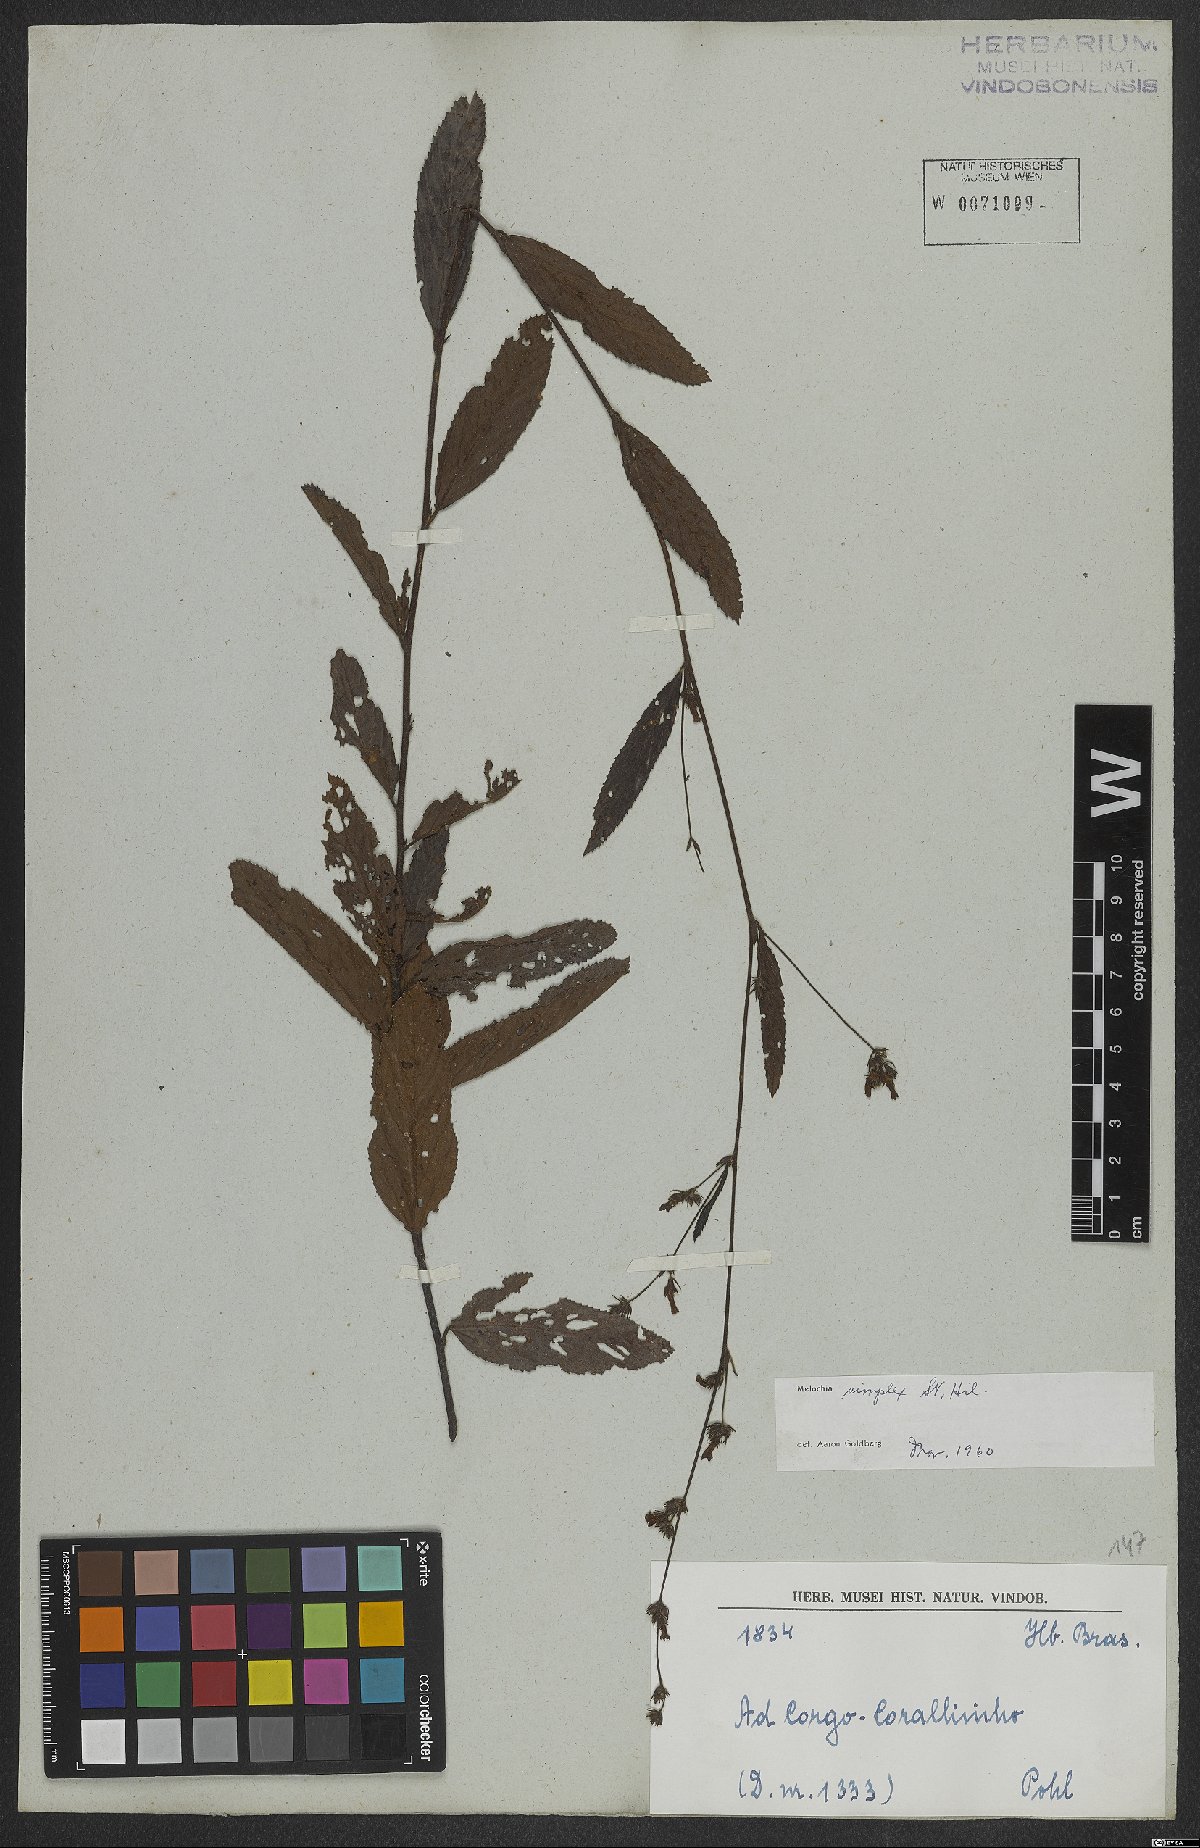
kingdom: Plantae
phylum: Tracheophyta
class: Magnoliopsida
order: Malvales
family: Malvaceae
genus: Melochia
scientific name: Melochia simplex
